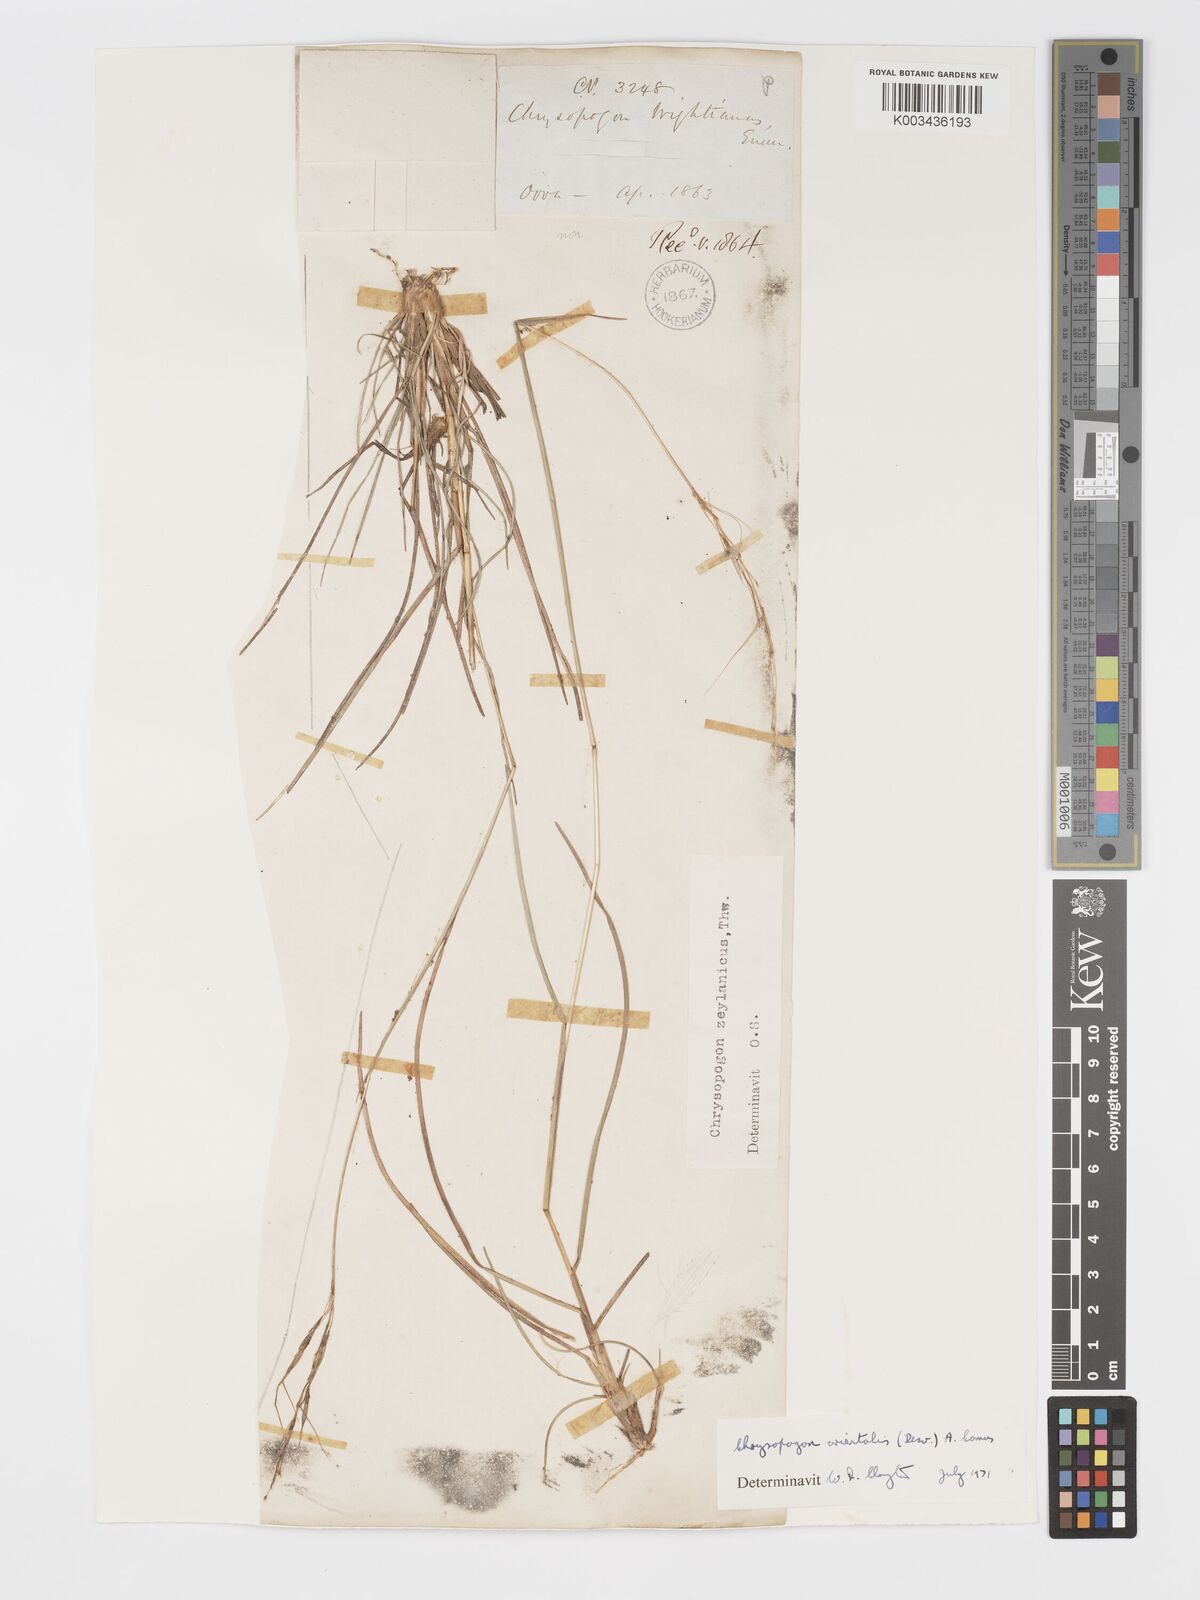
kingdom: Plantae
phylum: Tracheophyta
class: Liliopsida
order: Poales
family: Poaceae
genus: Chrysopogon
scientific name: Chrysopogon orientalis
